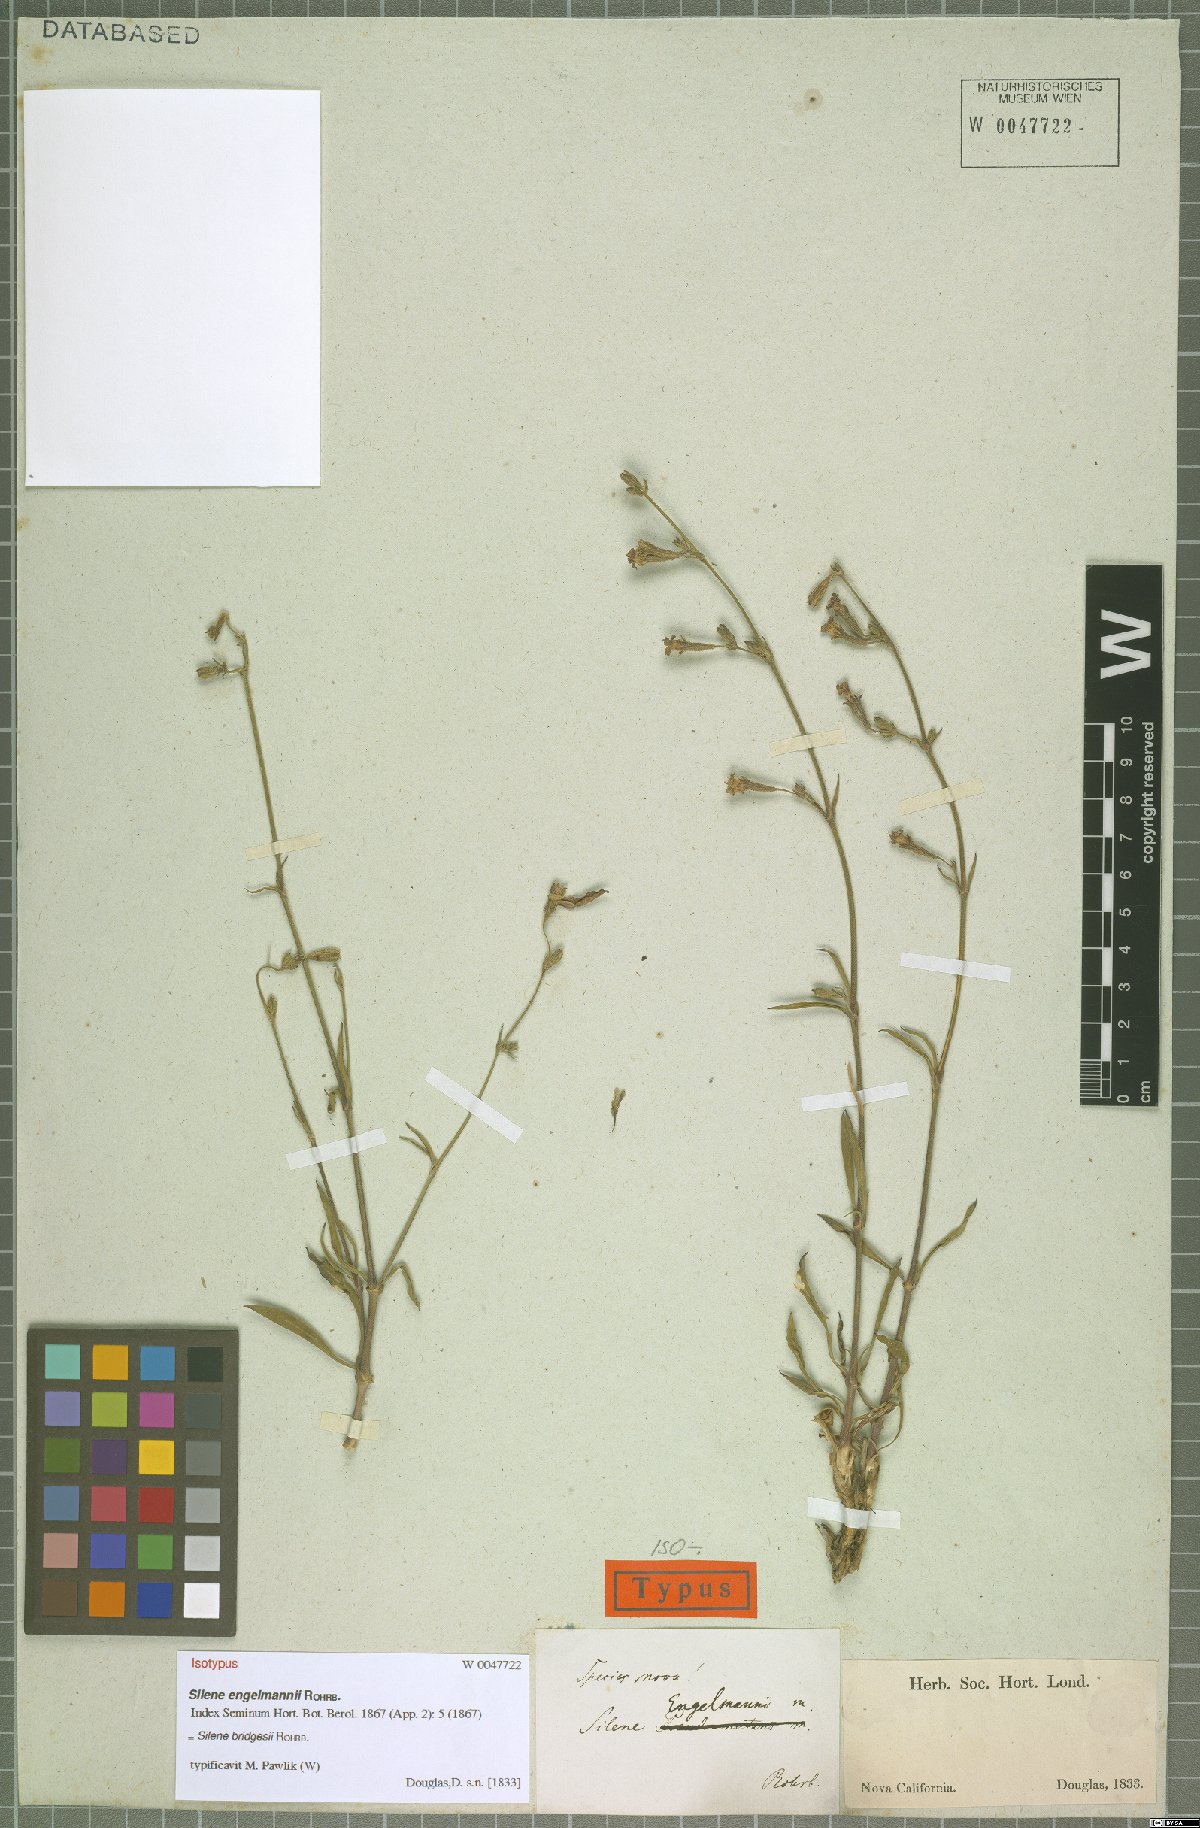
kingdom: Plantae
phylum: Tracheophyta
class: Magnoliopsida
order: Caryophyllales
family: Caryophyllaceae
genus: Silene
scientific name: Silene bridgesii
